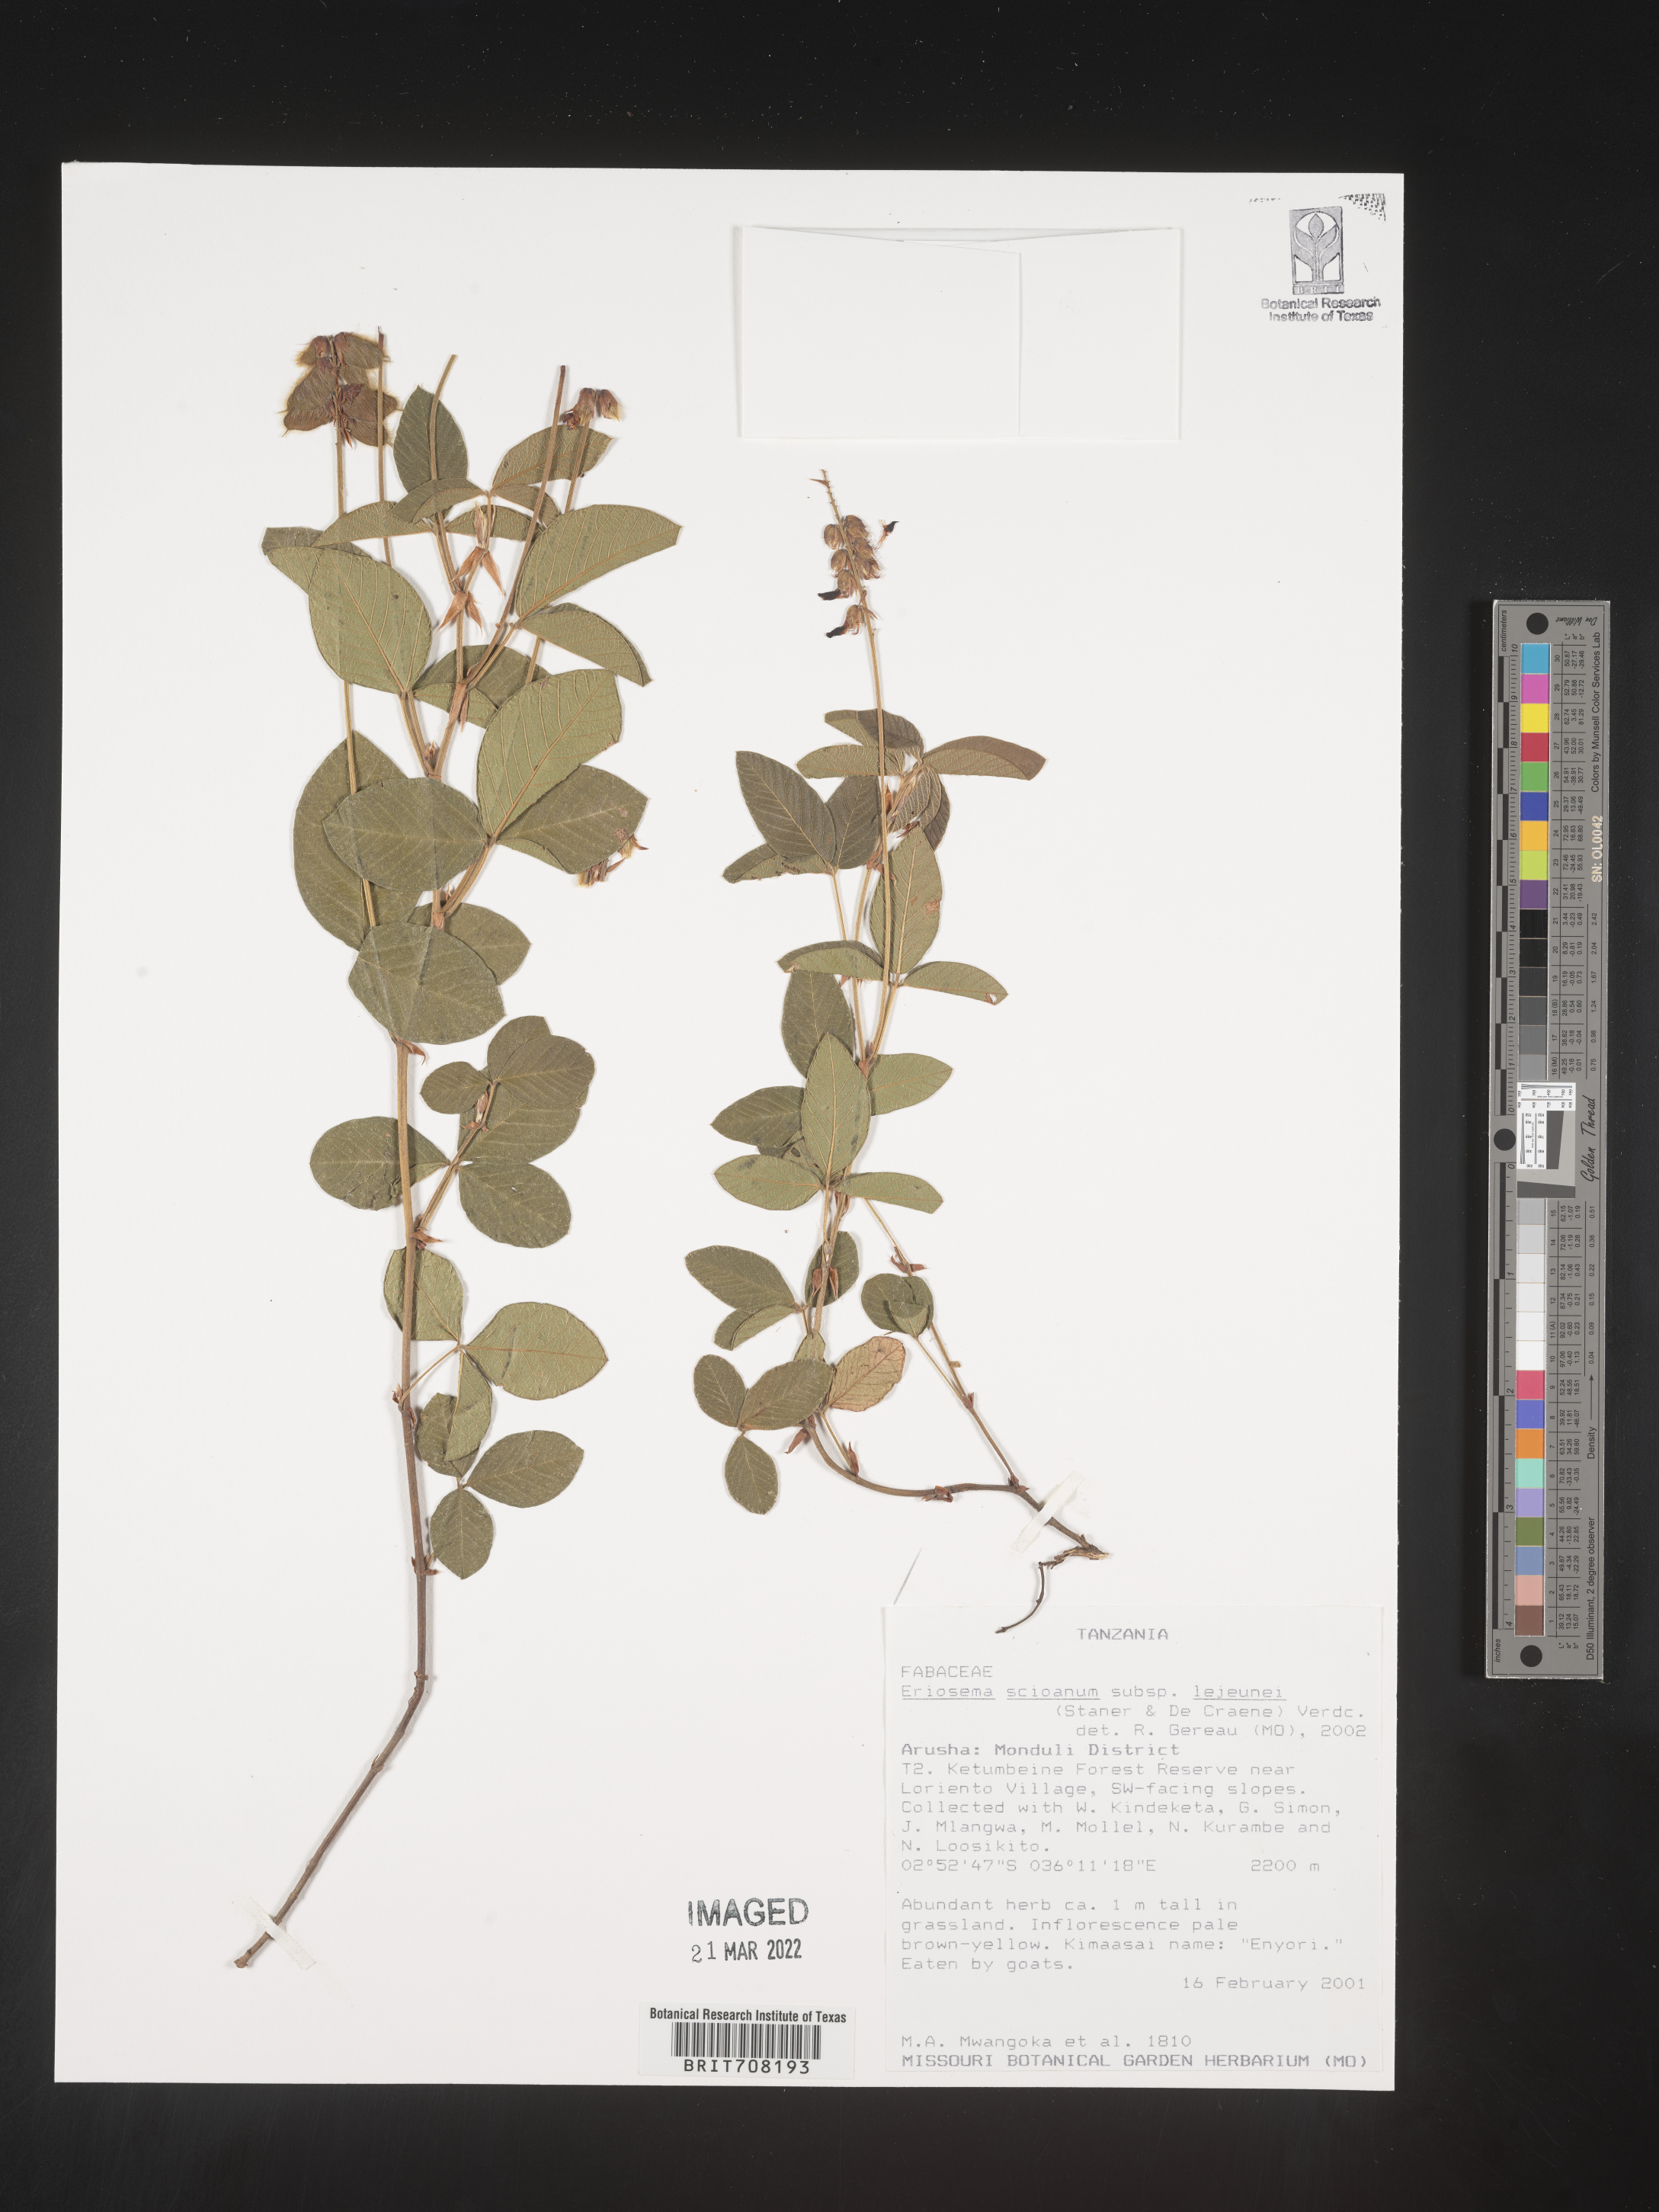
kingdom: Plantae
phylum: Tracheophyta
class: Magnoliopsida
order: Fabales
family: Fabaceae
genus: Eriosema
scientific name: Eriosema
